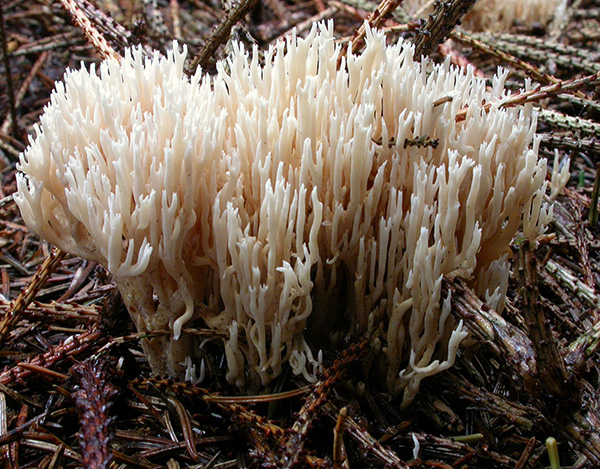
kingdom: Fungi
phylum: Basidiomycota
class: Agaricomycetes
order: Gomphales
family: Gomphaceae
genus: Ramaria
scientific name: Ramaria gracilis
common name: anis-koralsvamp
